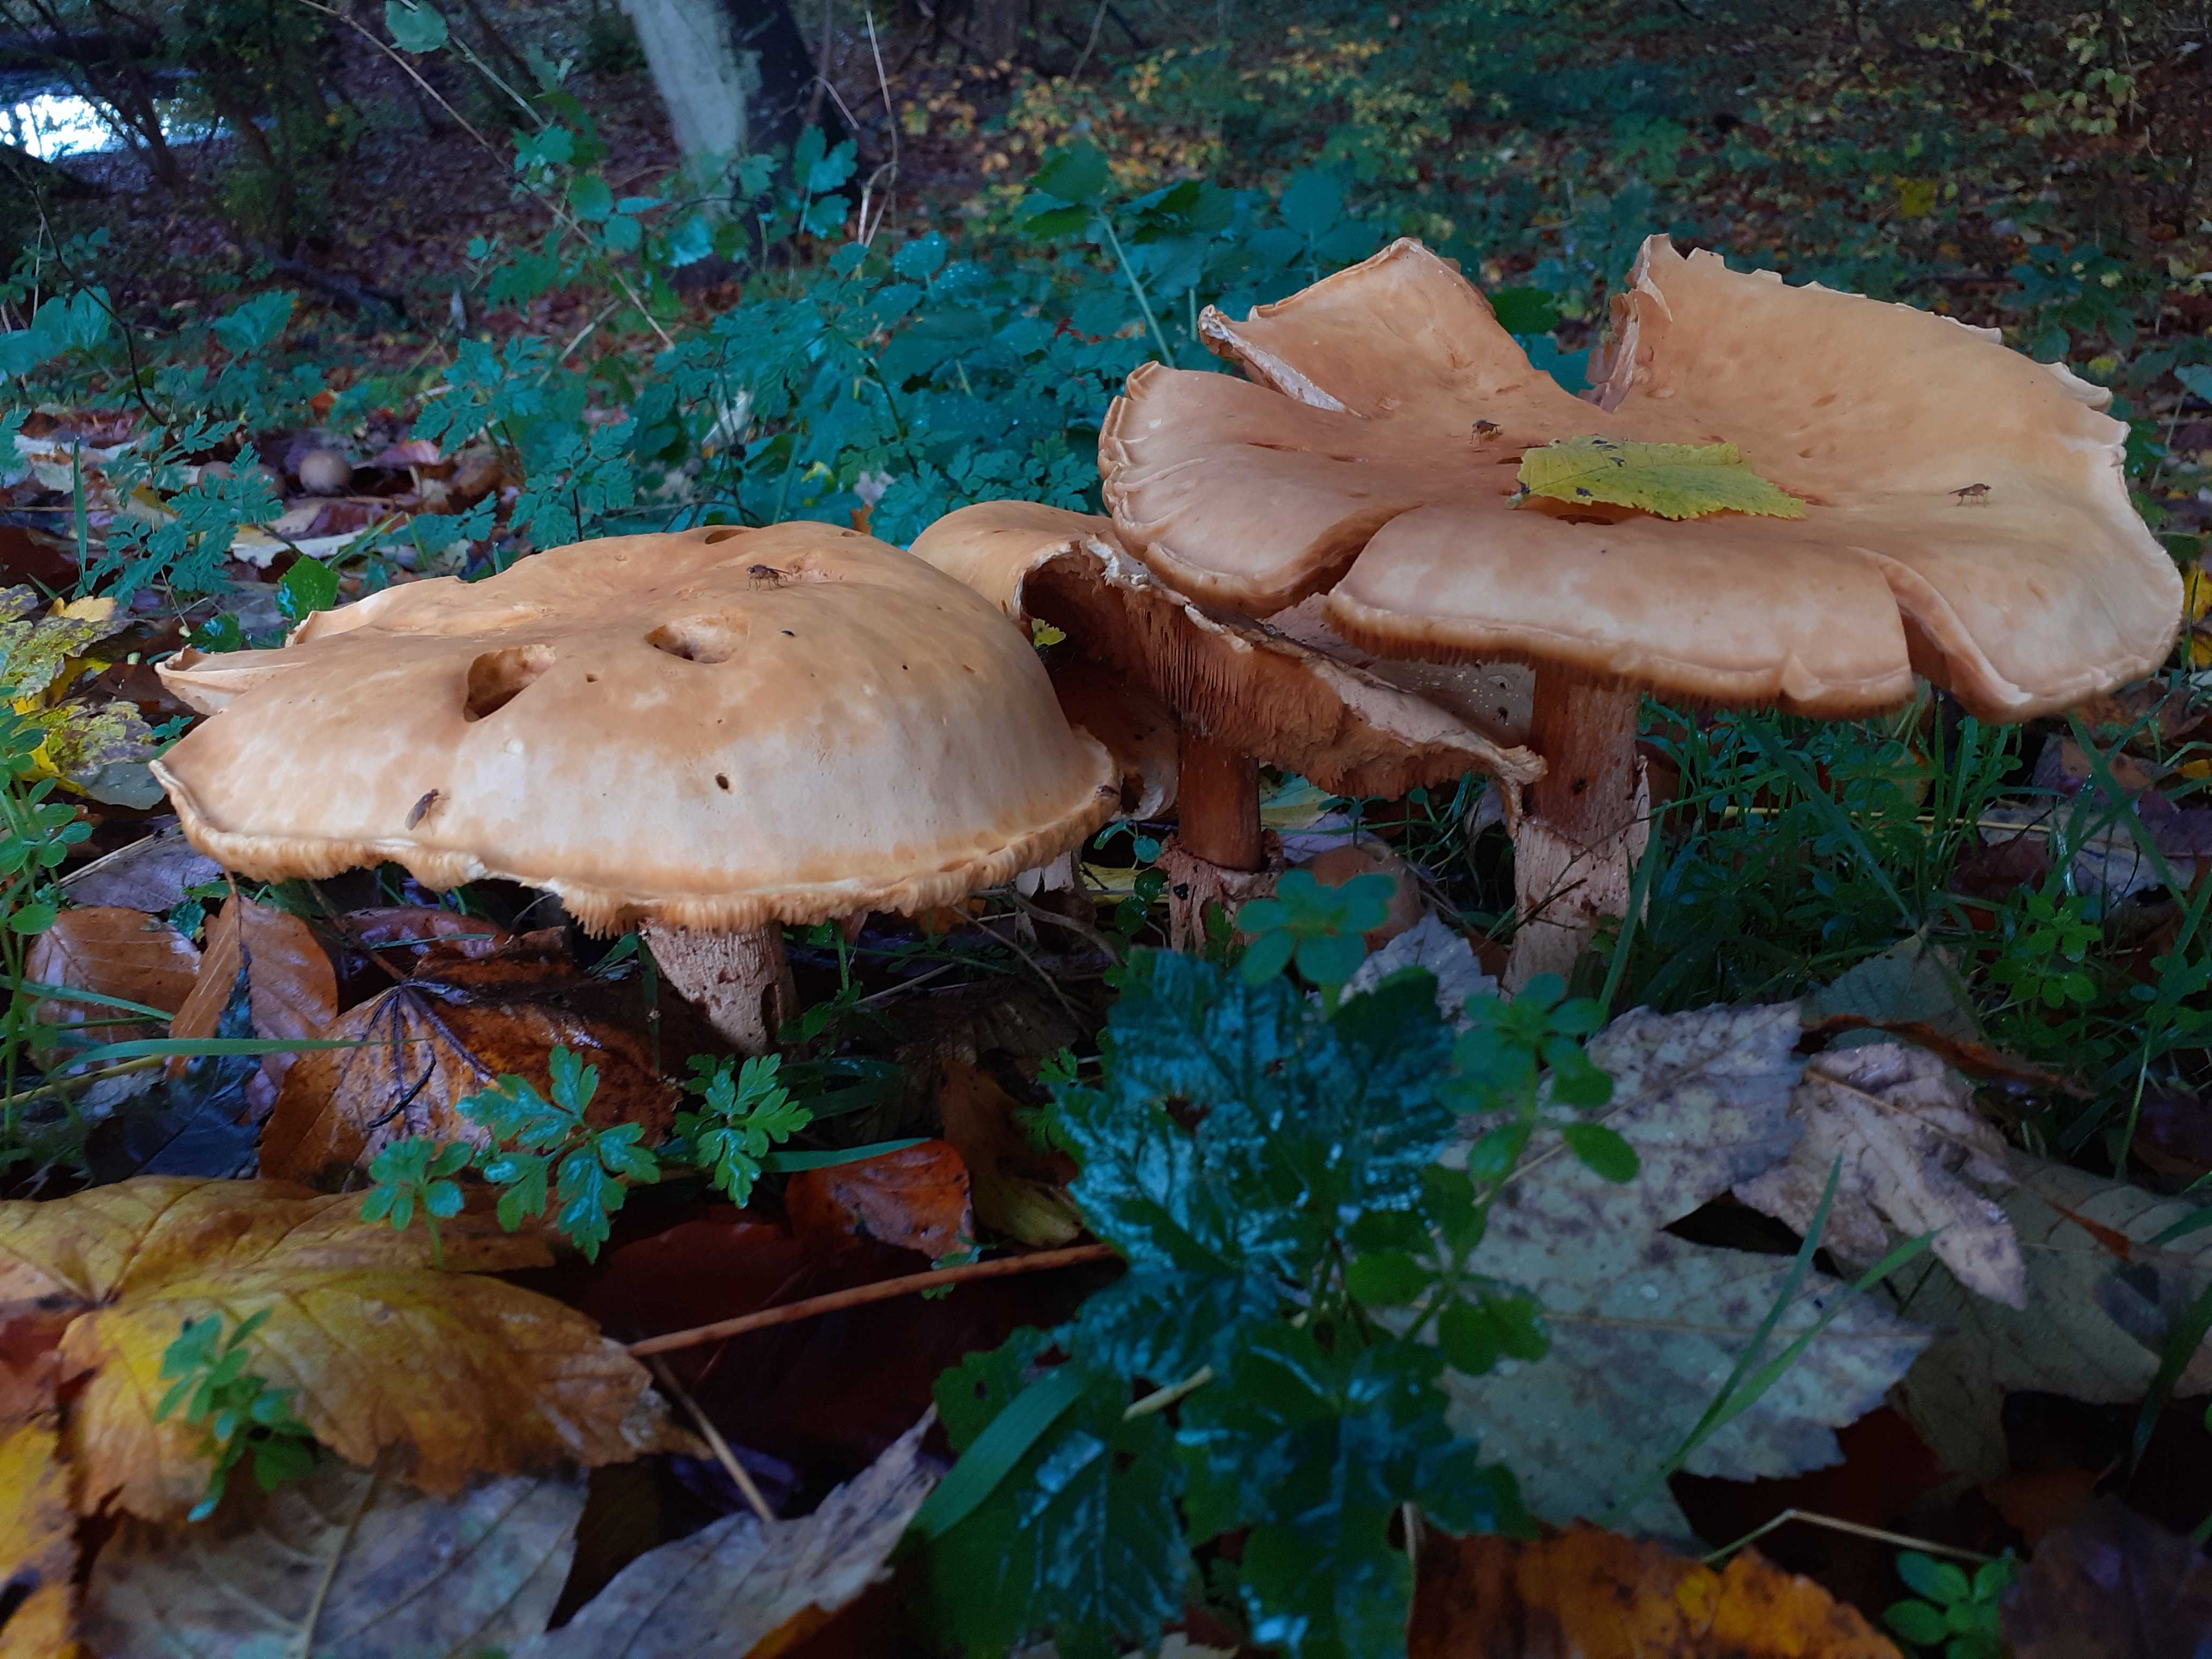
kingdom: Fungi
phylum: Basidiomycota
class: Agaricomycetes
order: Agaricales
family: Tricholomataceae
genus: Phaeolepiota
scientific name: Phaeolepiota aurea
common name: gyldenhat
